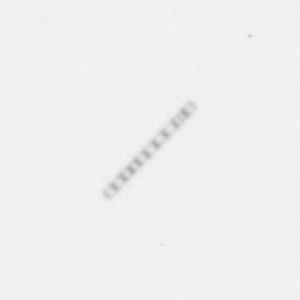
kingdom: Chromista
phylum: Ochrophyta
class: Bacillariophyceae
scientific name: Bacillariophyceae
